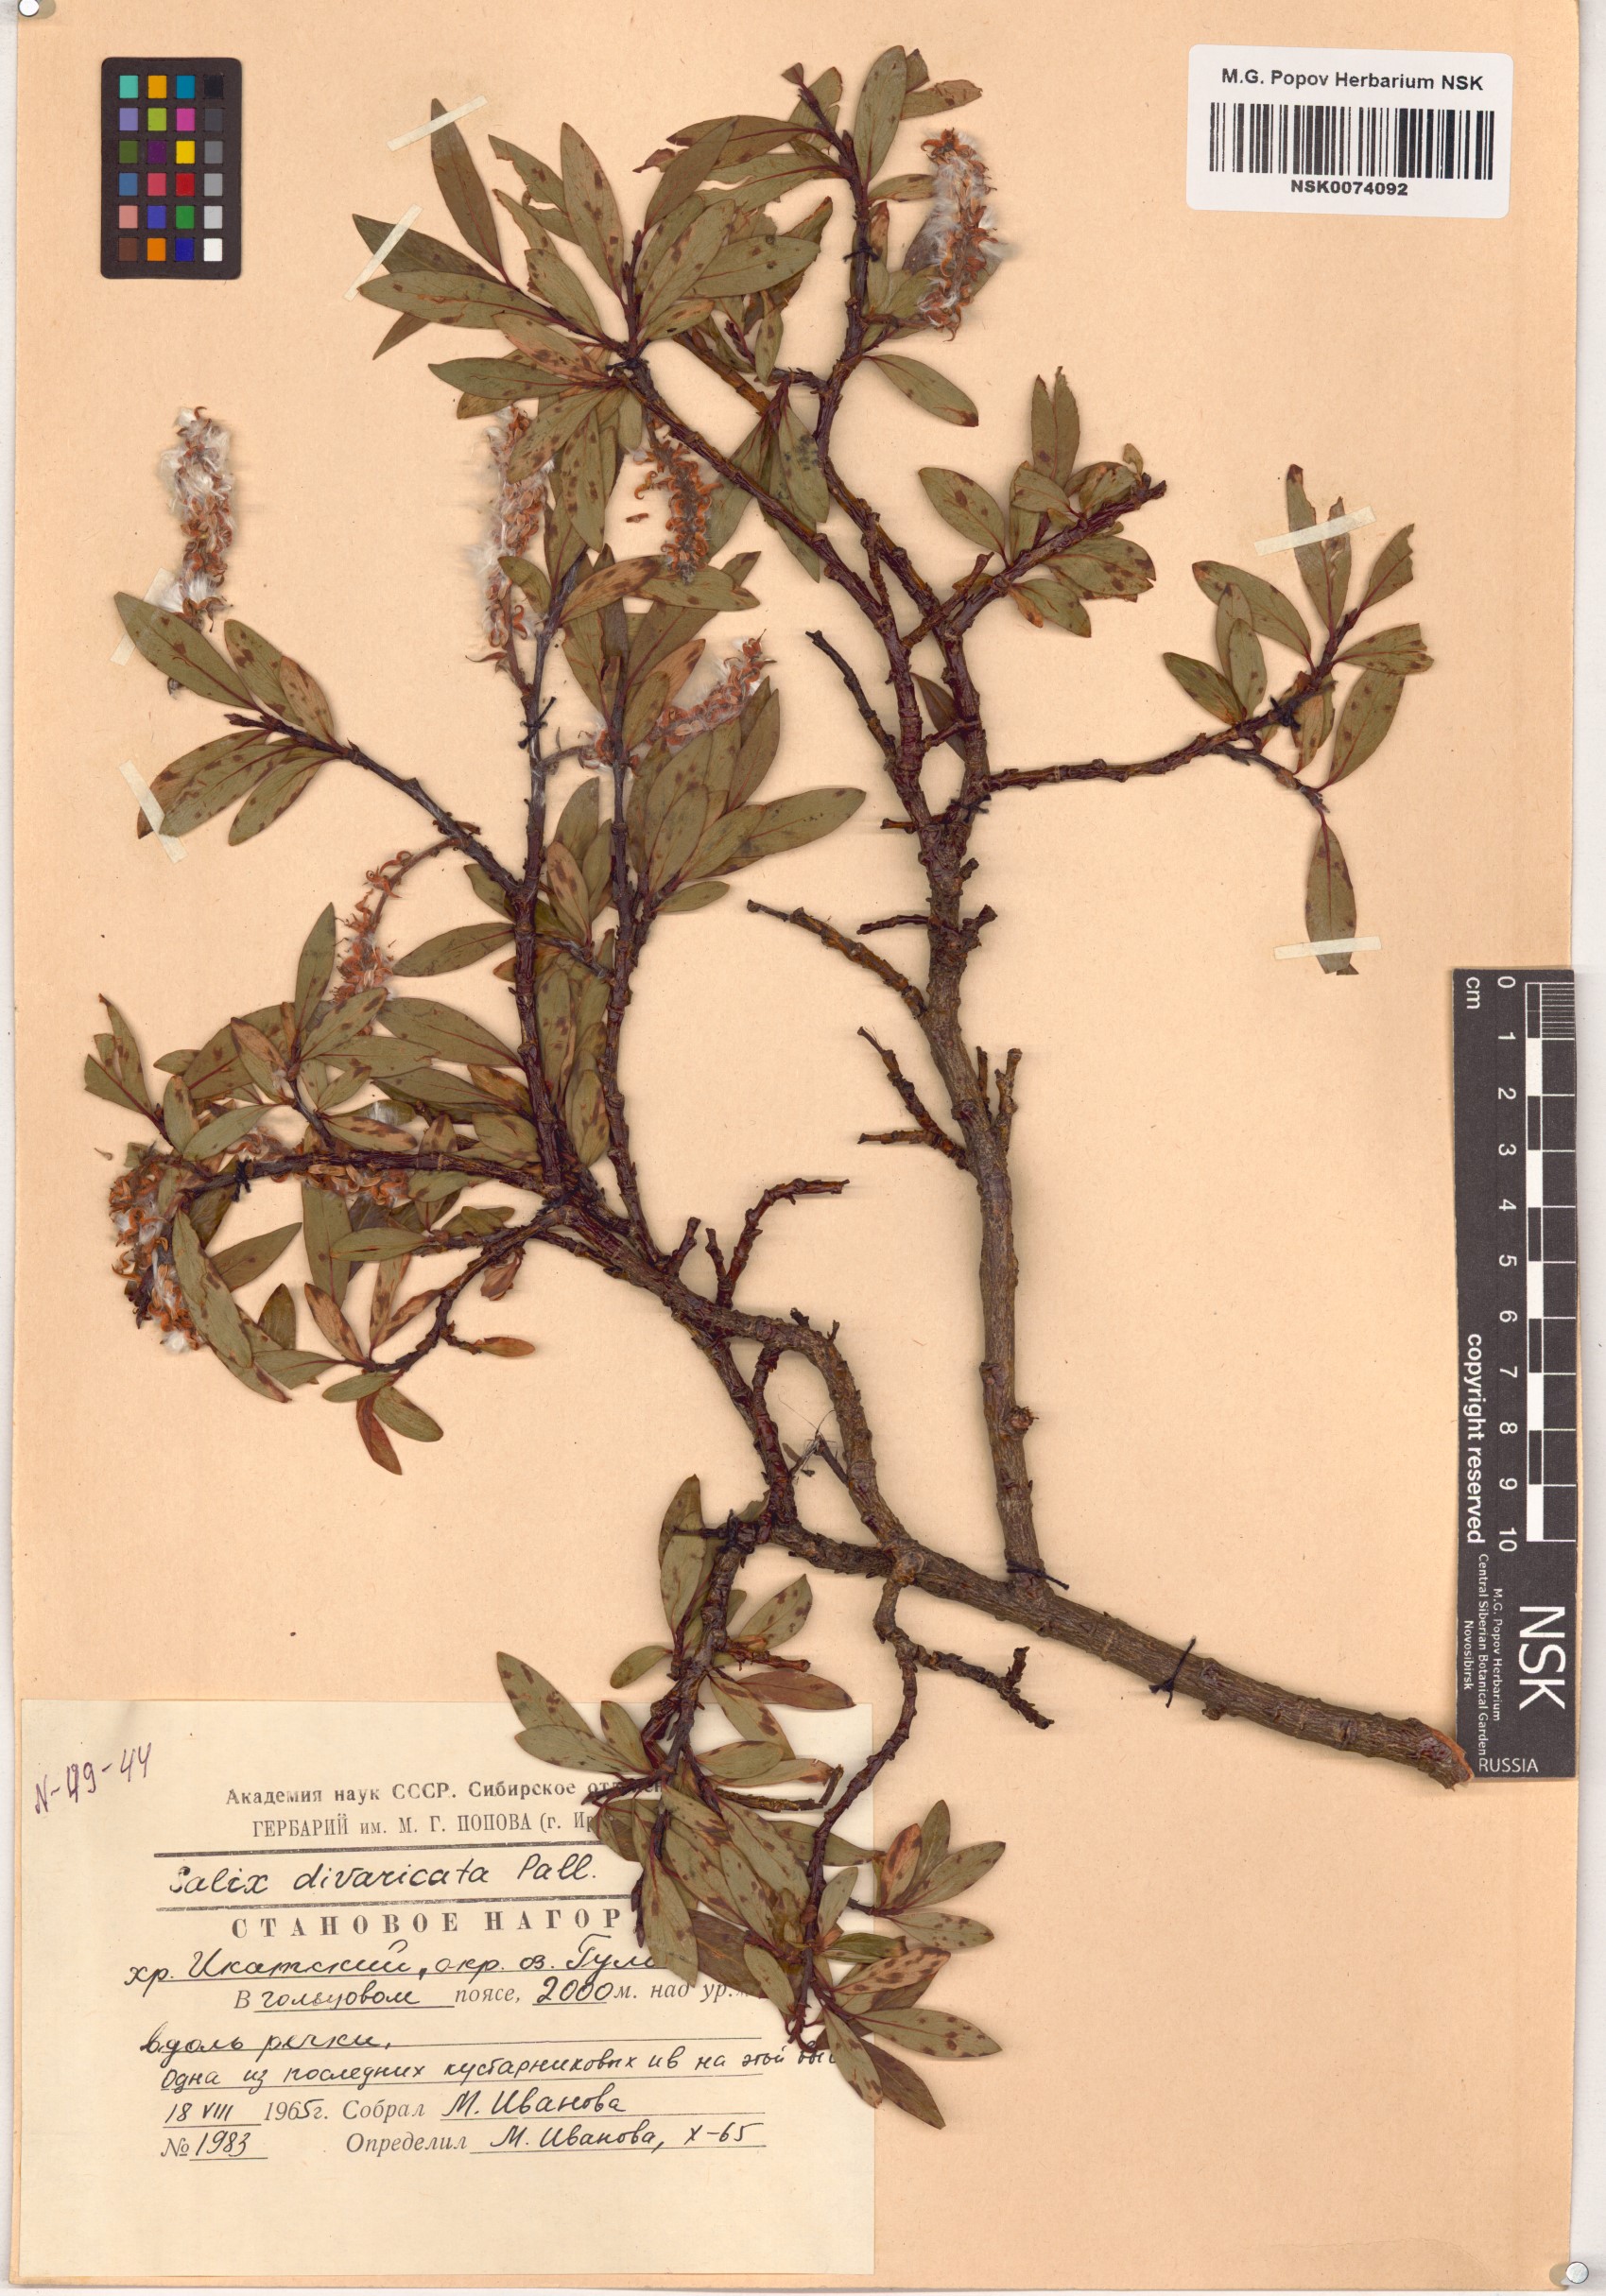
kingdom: Plantae
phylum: Tracheophyta
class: Magnoliopsida
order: Malpighiales
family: Salicaceae
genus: Salix
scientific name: Salix divaricata
